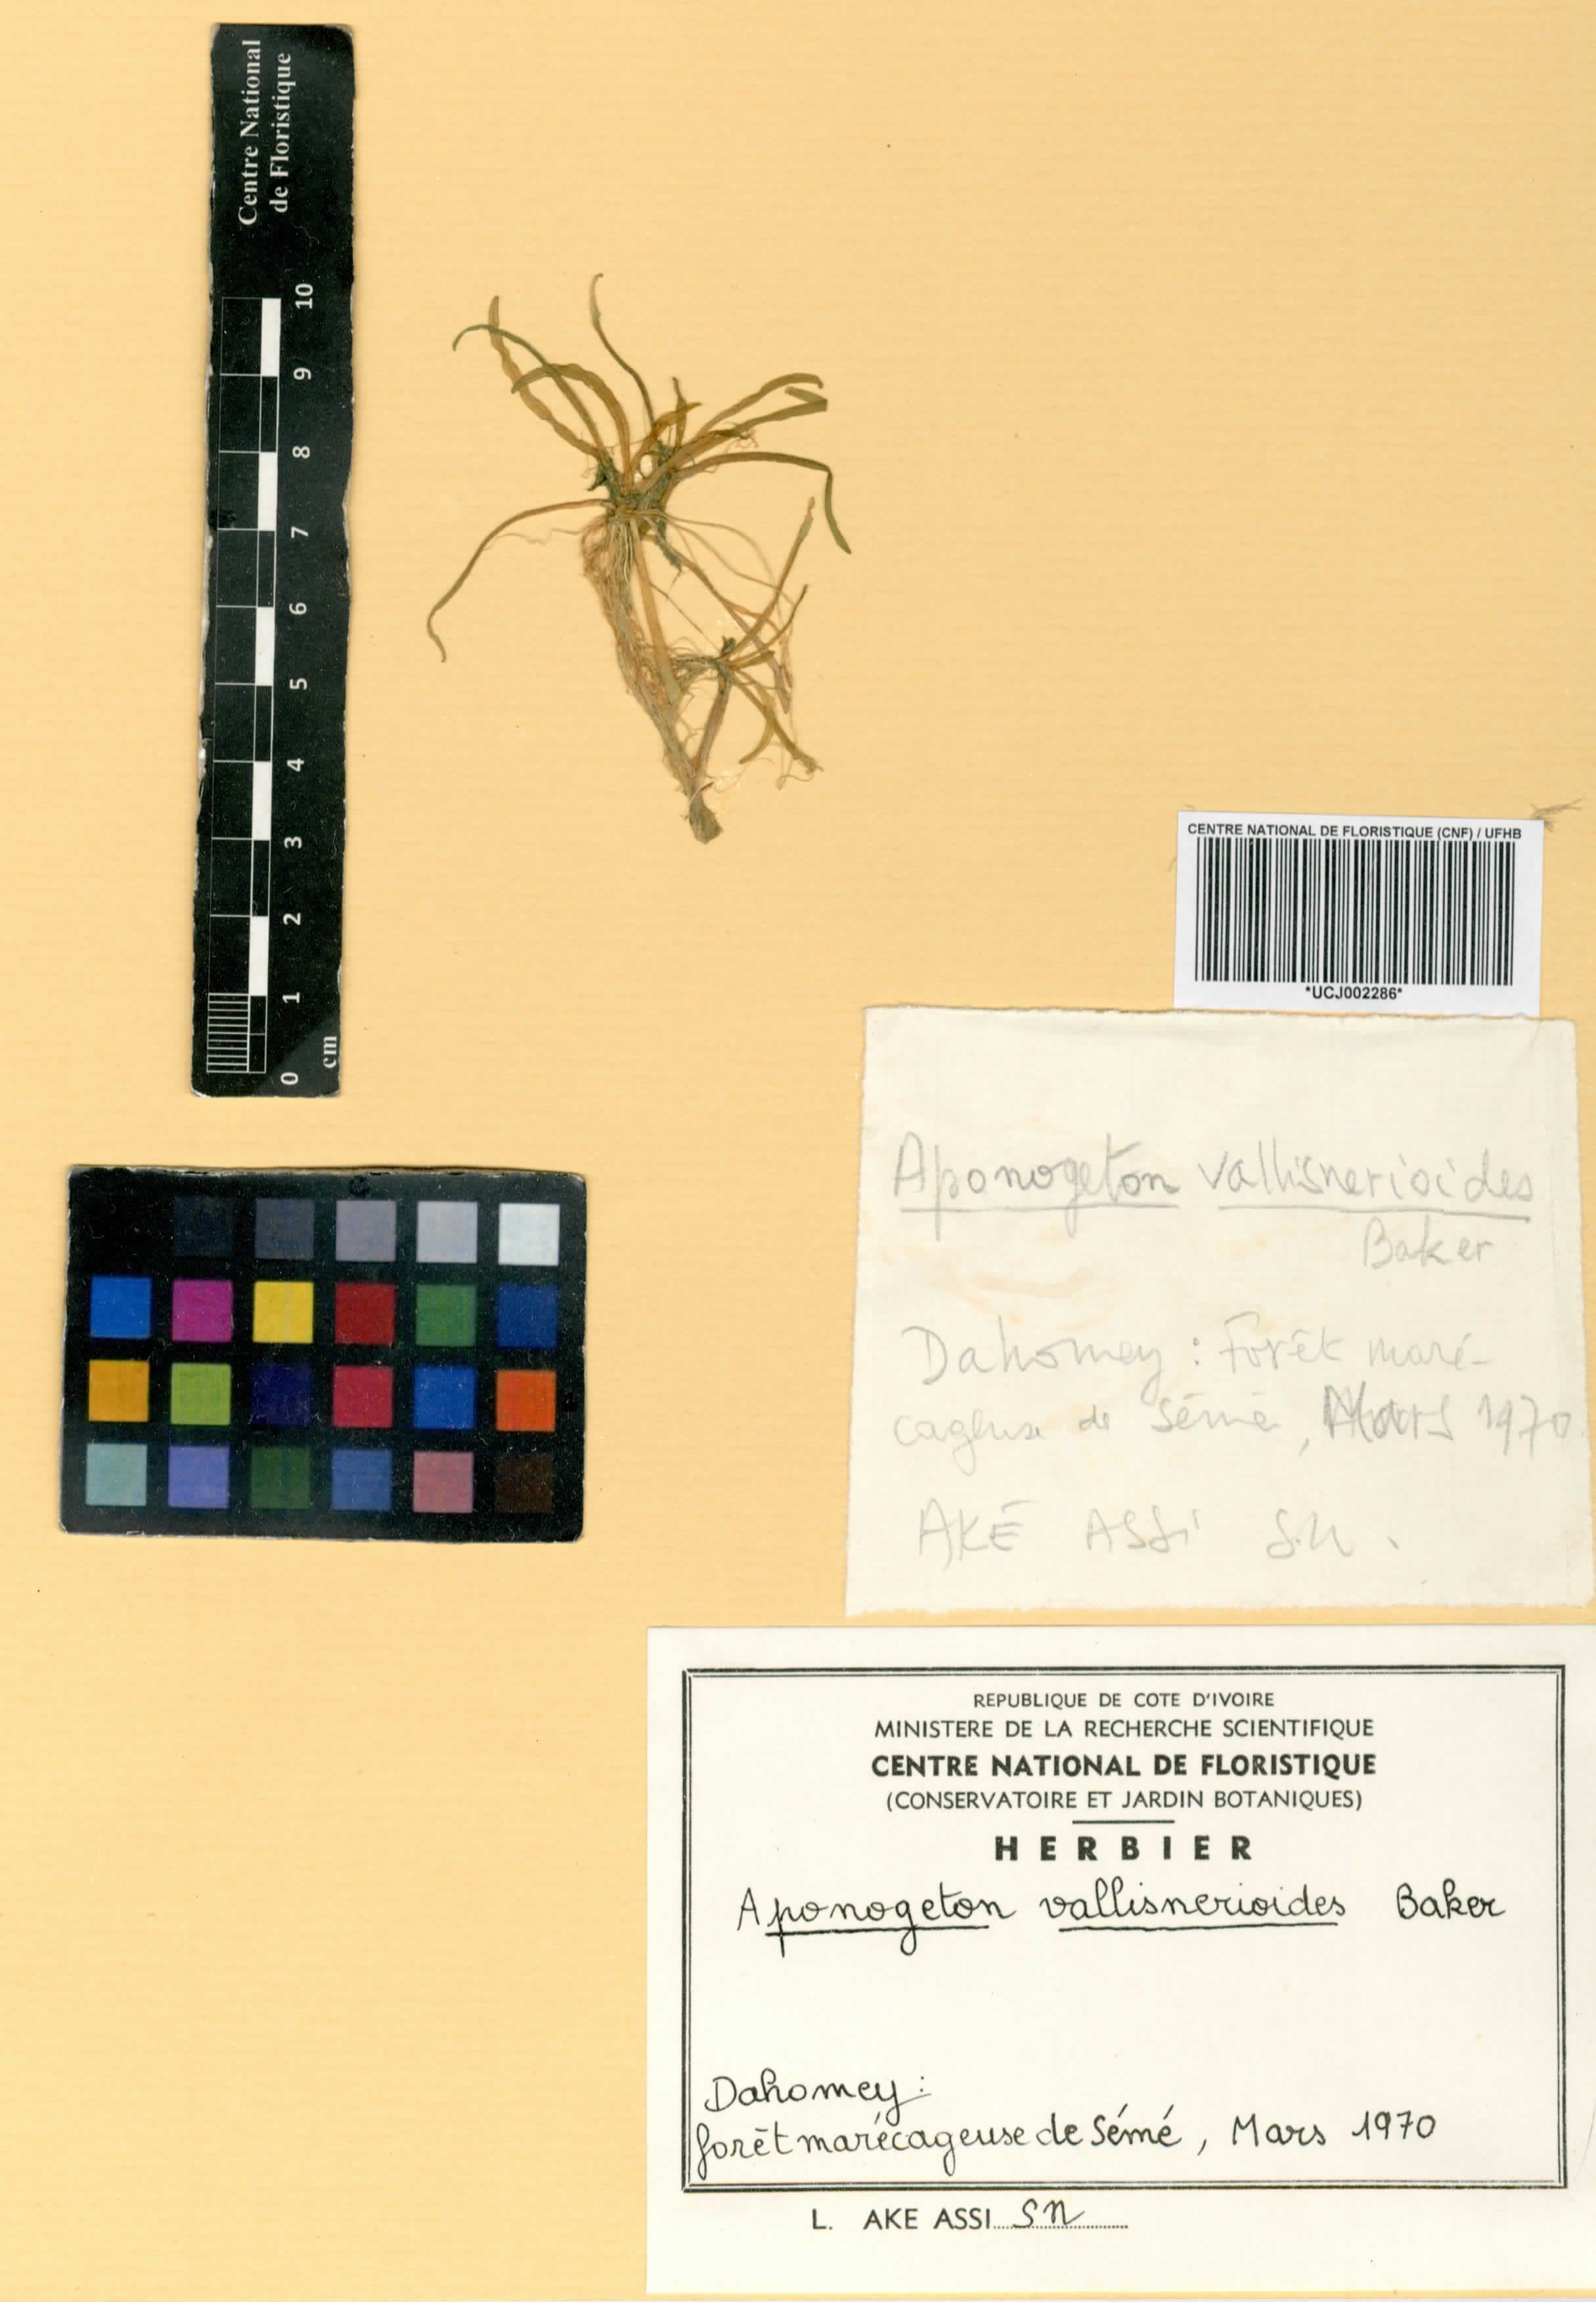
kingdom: Plantae
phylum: Tracheophyta
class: Liliopsida
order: Alismatales
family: Aponogetonaceae
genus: Aponogeton
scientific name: Aponogeton vallisnerioides
